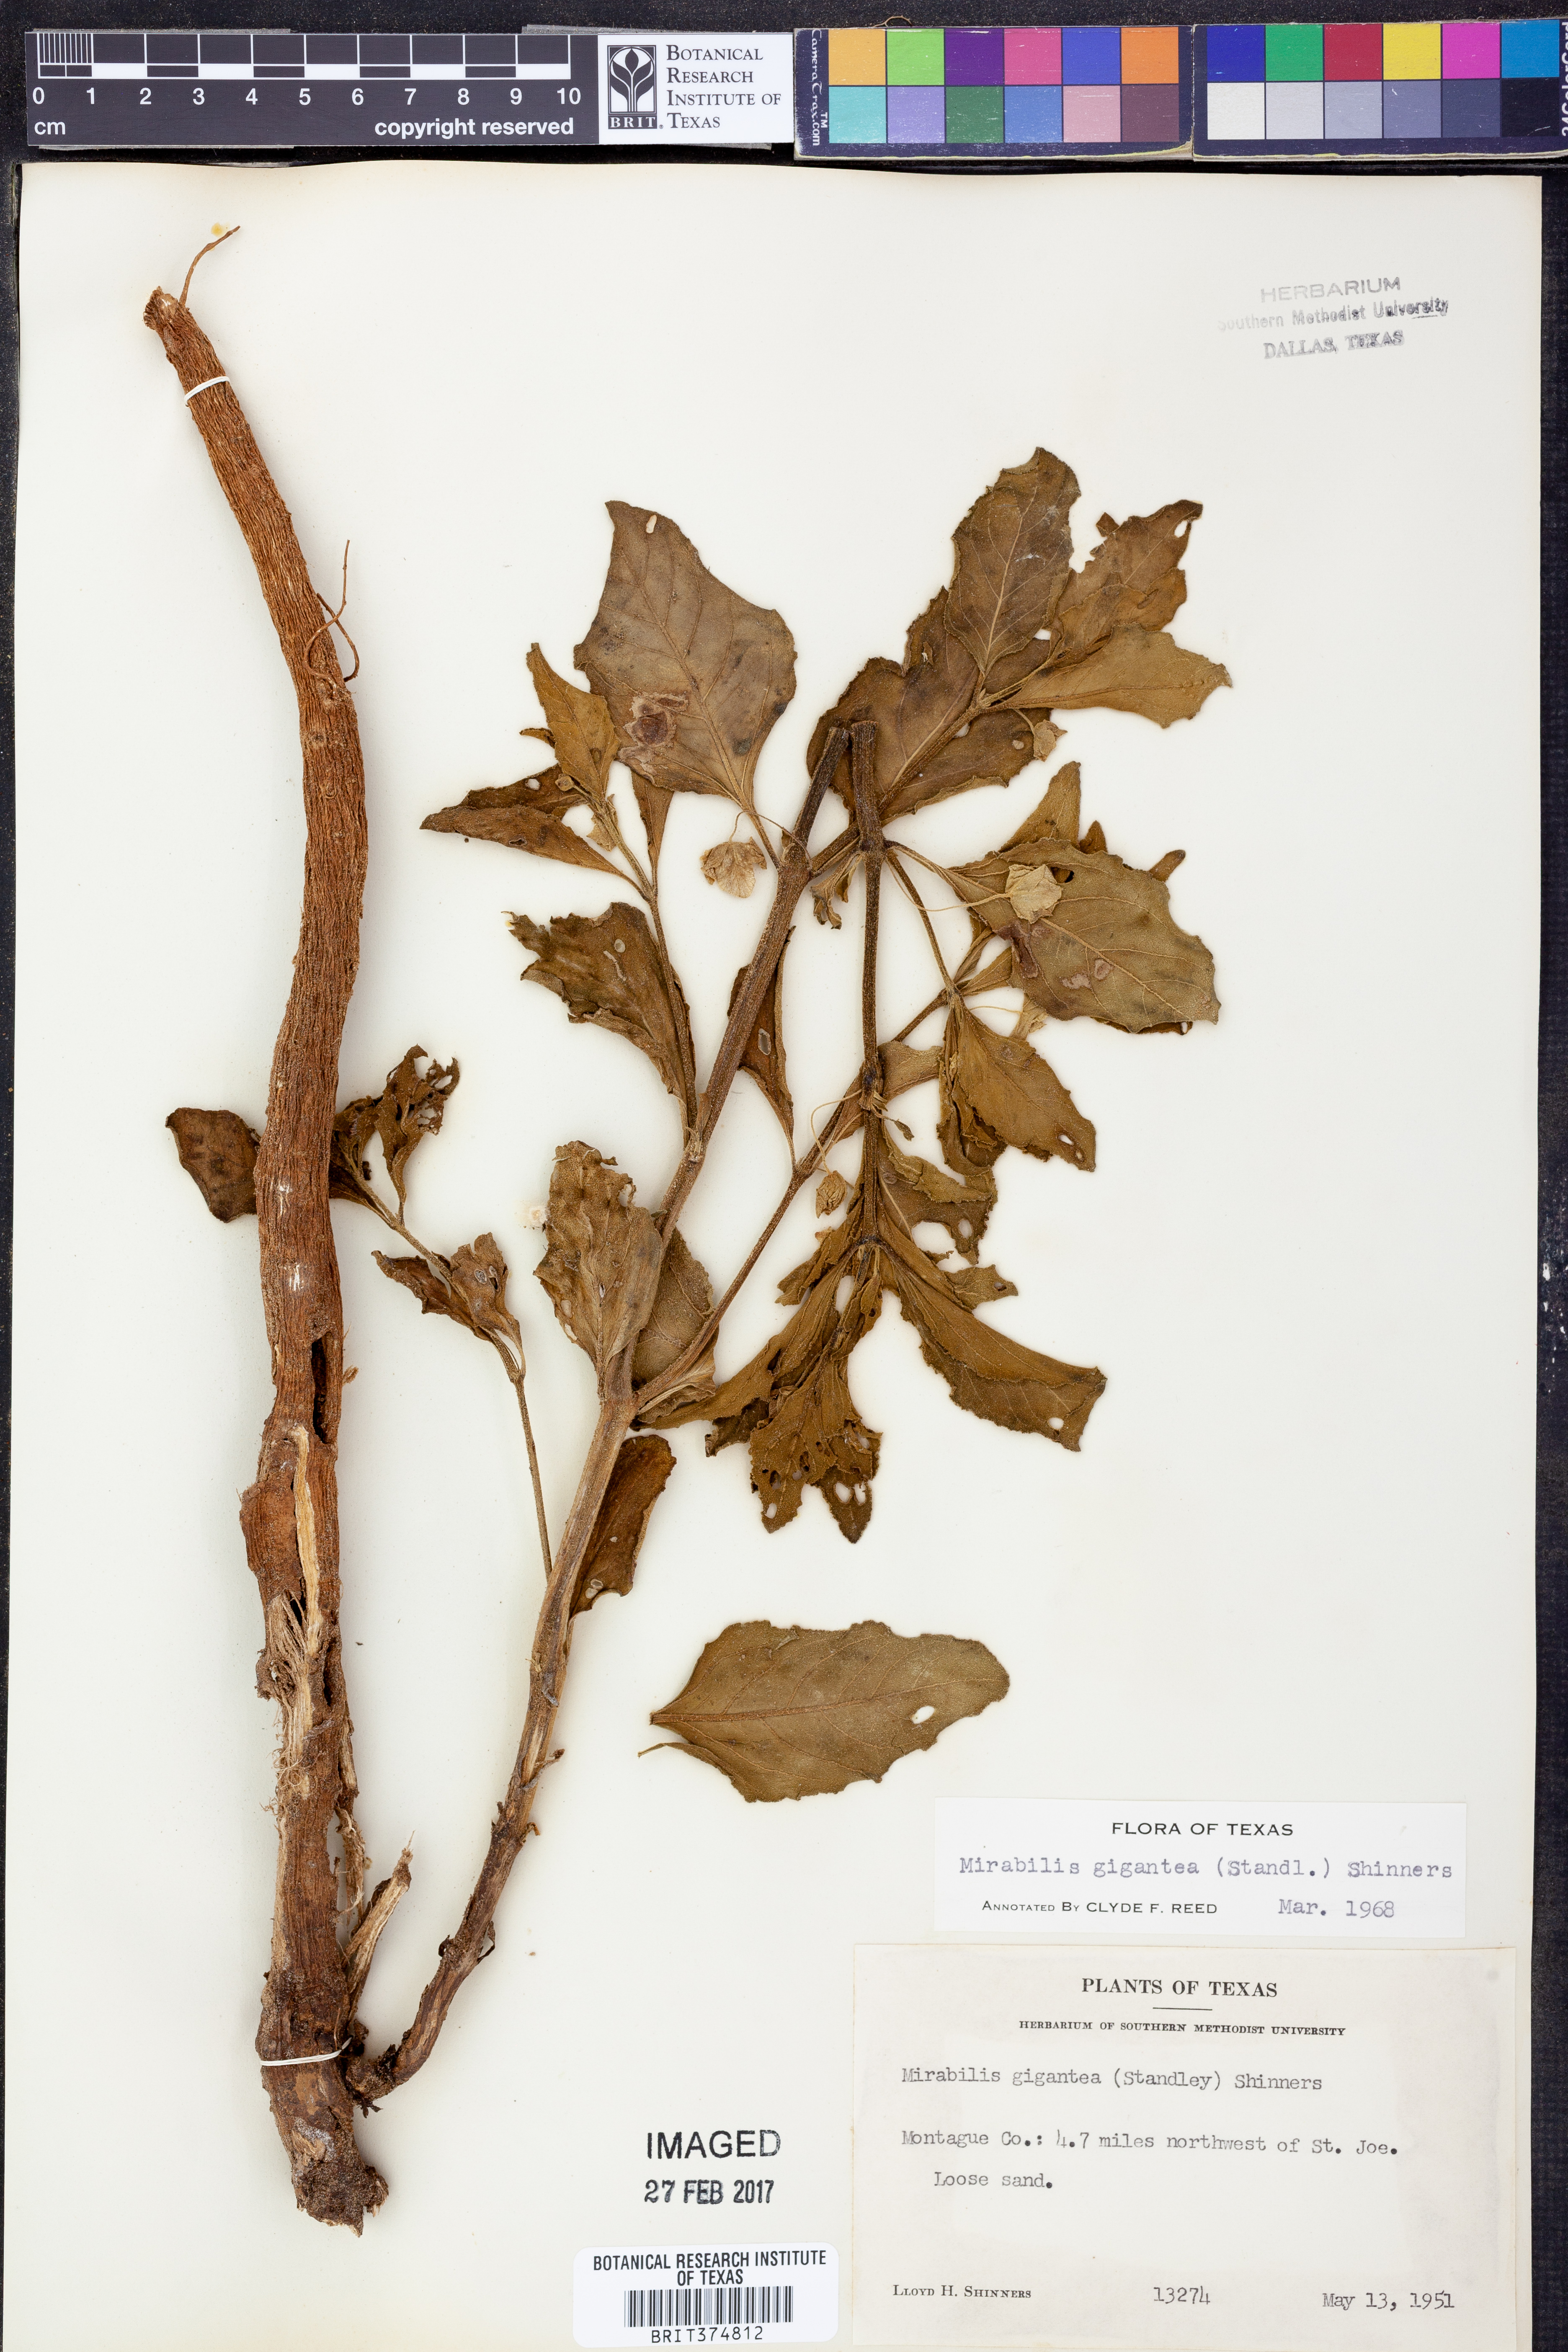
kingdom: Plantae
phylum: Tracheophyta
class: Magnoliopsida
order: Caryophyllales
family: Nyctaginaceae
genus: Mirabilis
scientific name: Mirabilis gigantea
